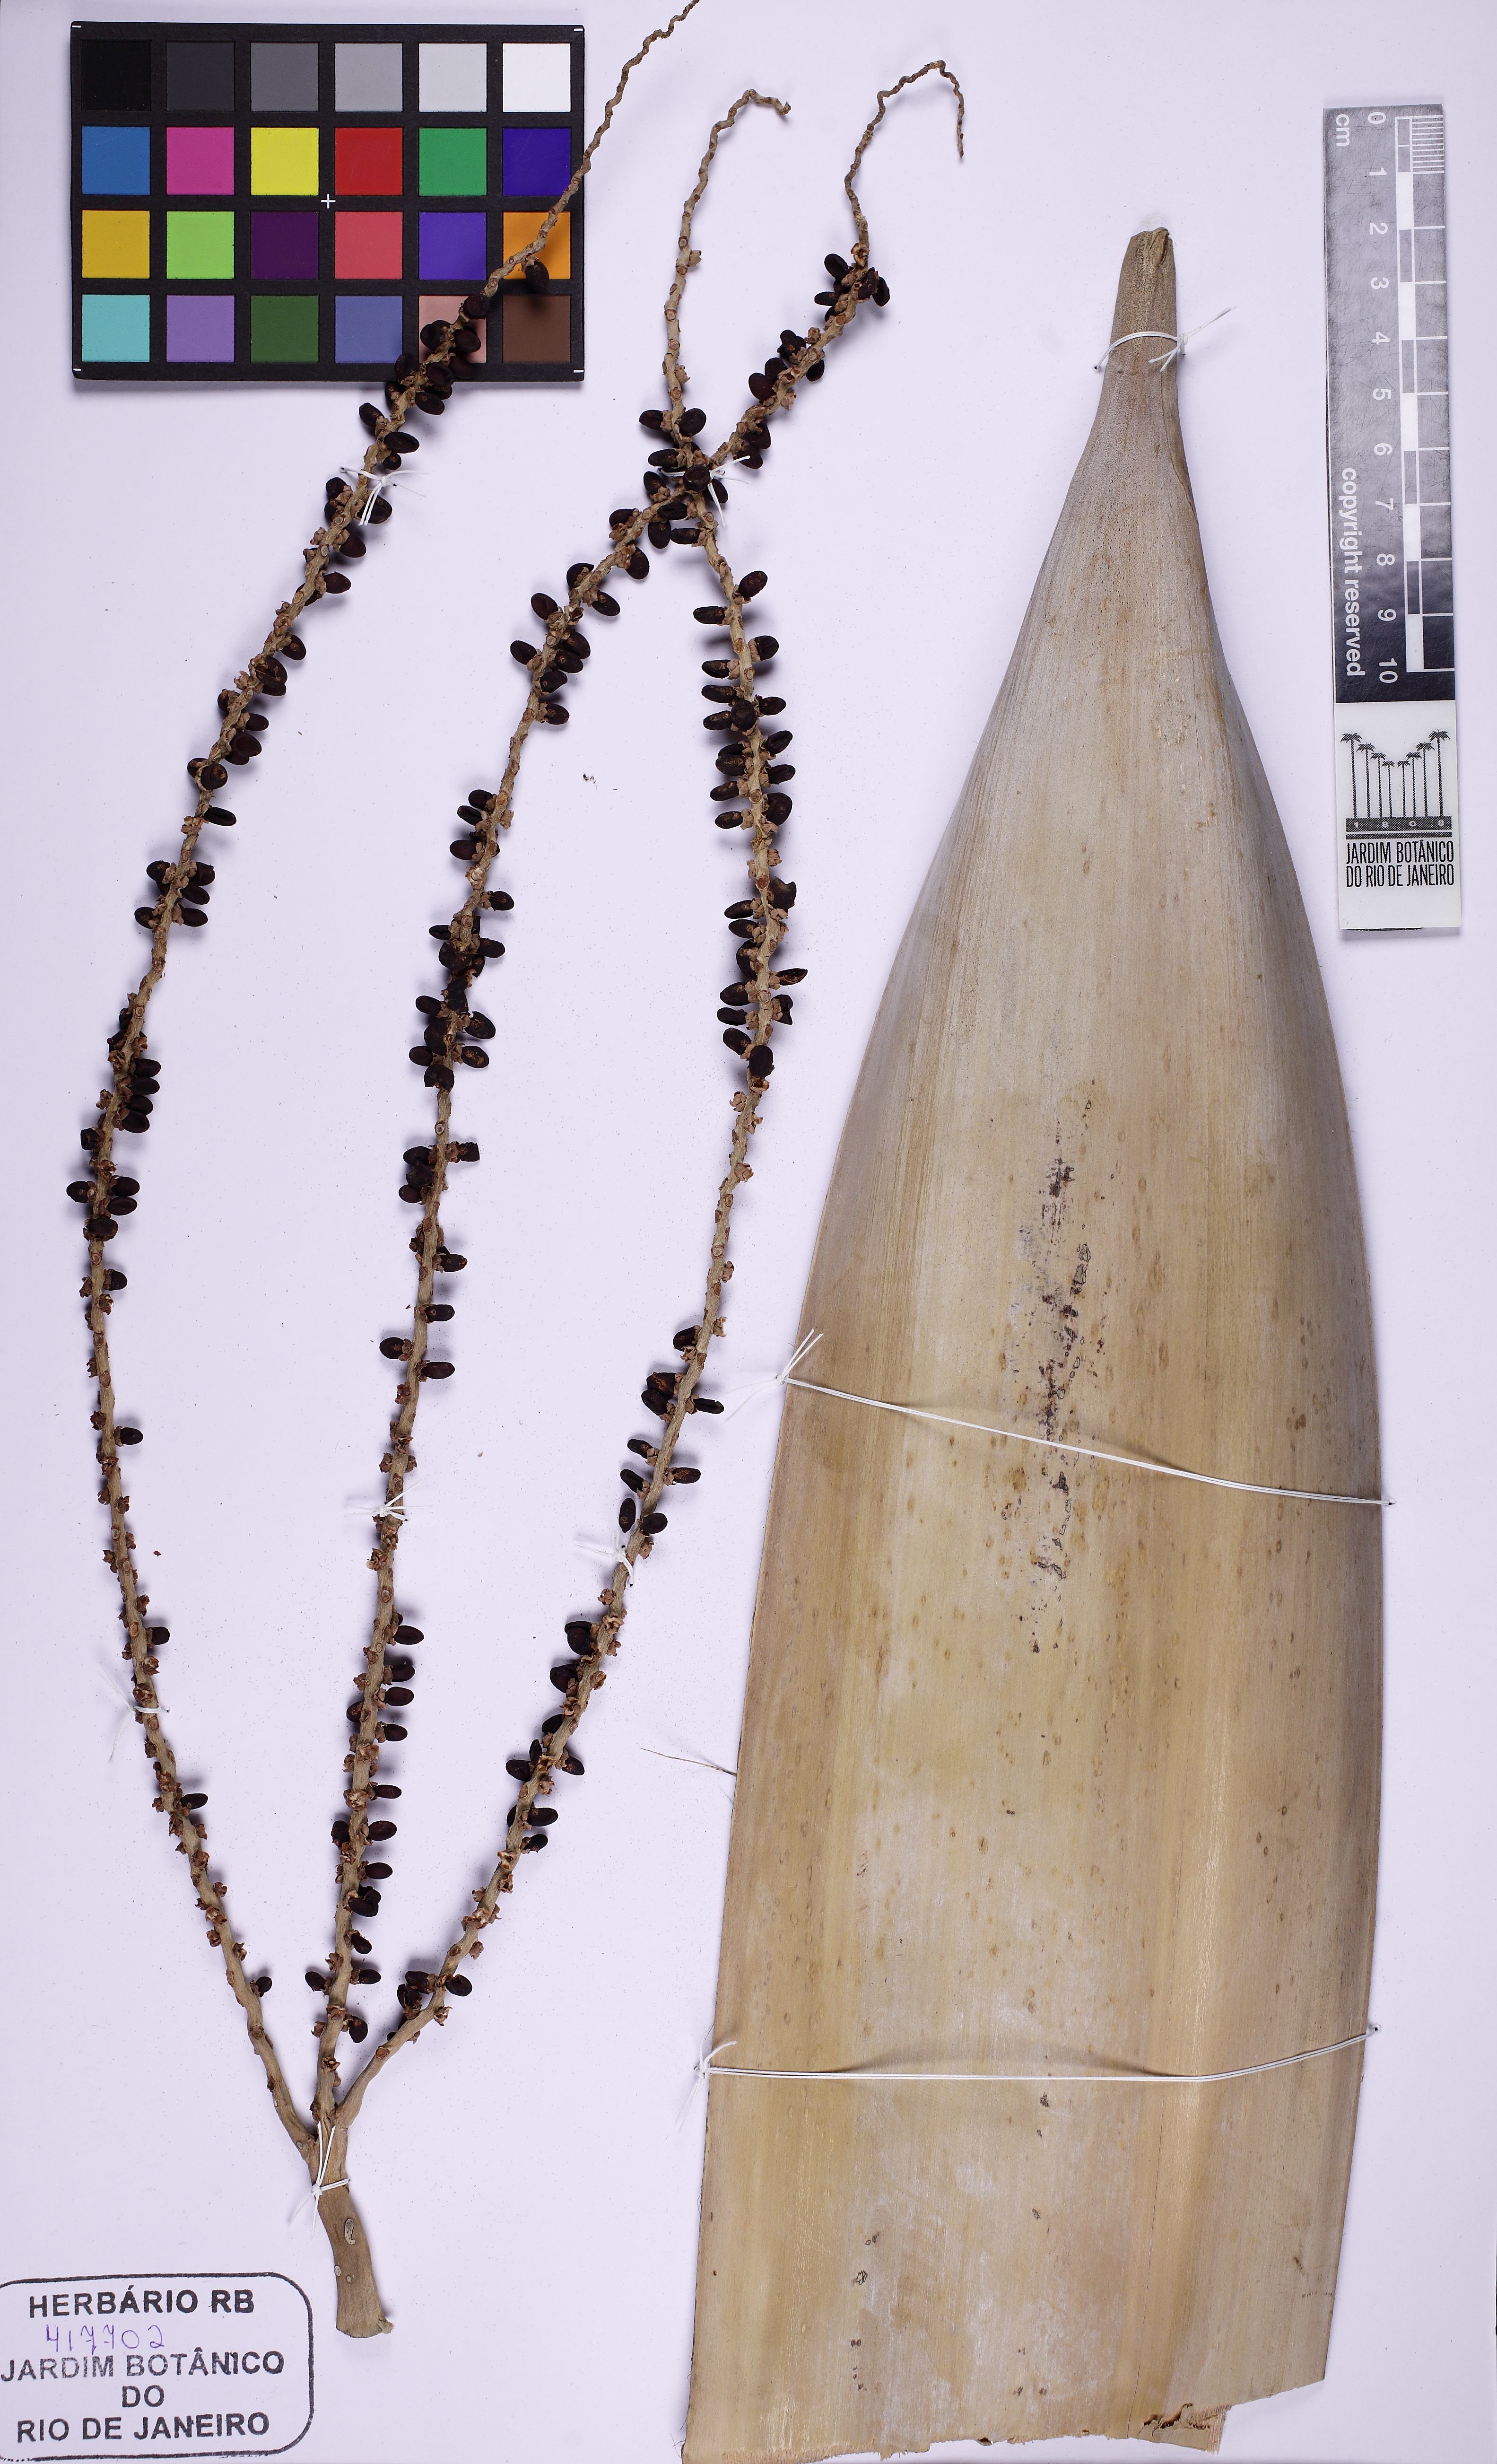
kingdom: Plantae
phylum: Tracheophyta
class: Liliopsida
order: Arecales
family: Arecaceae
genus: Phoenicophorium
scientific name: Phoenicophorium borsigianum
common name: Thief palm
